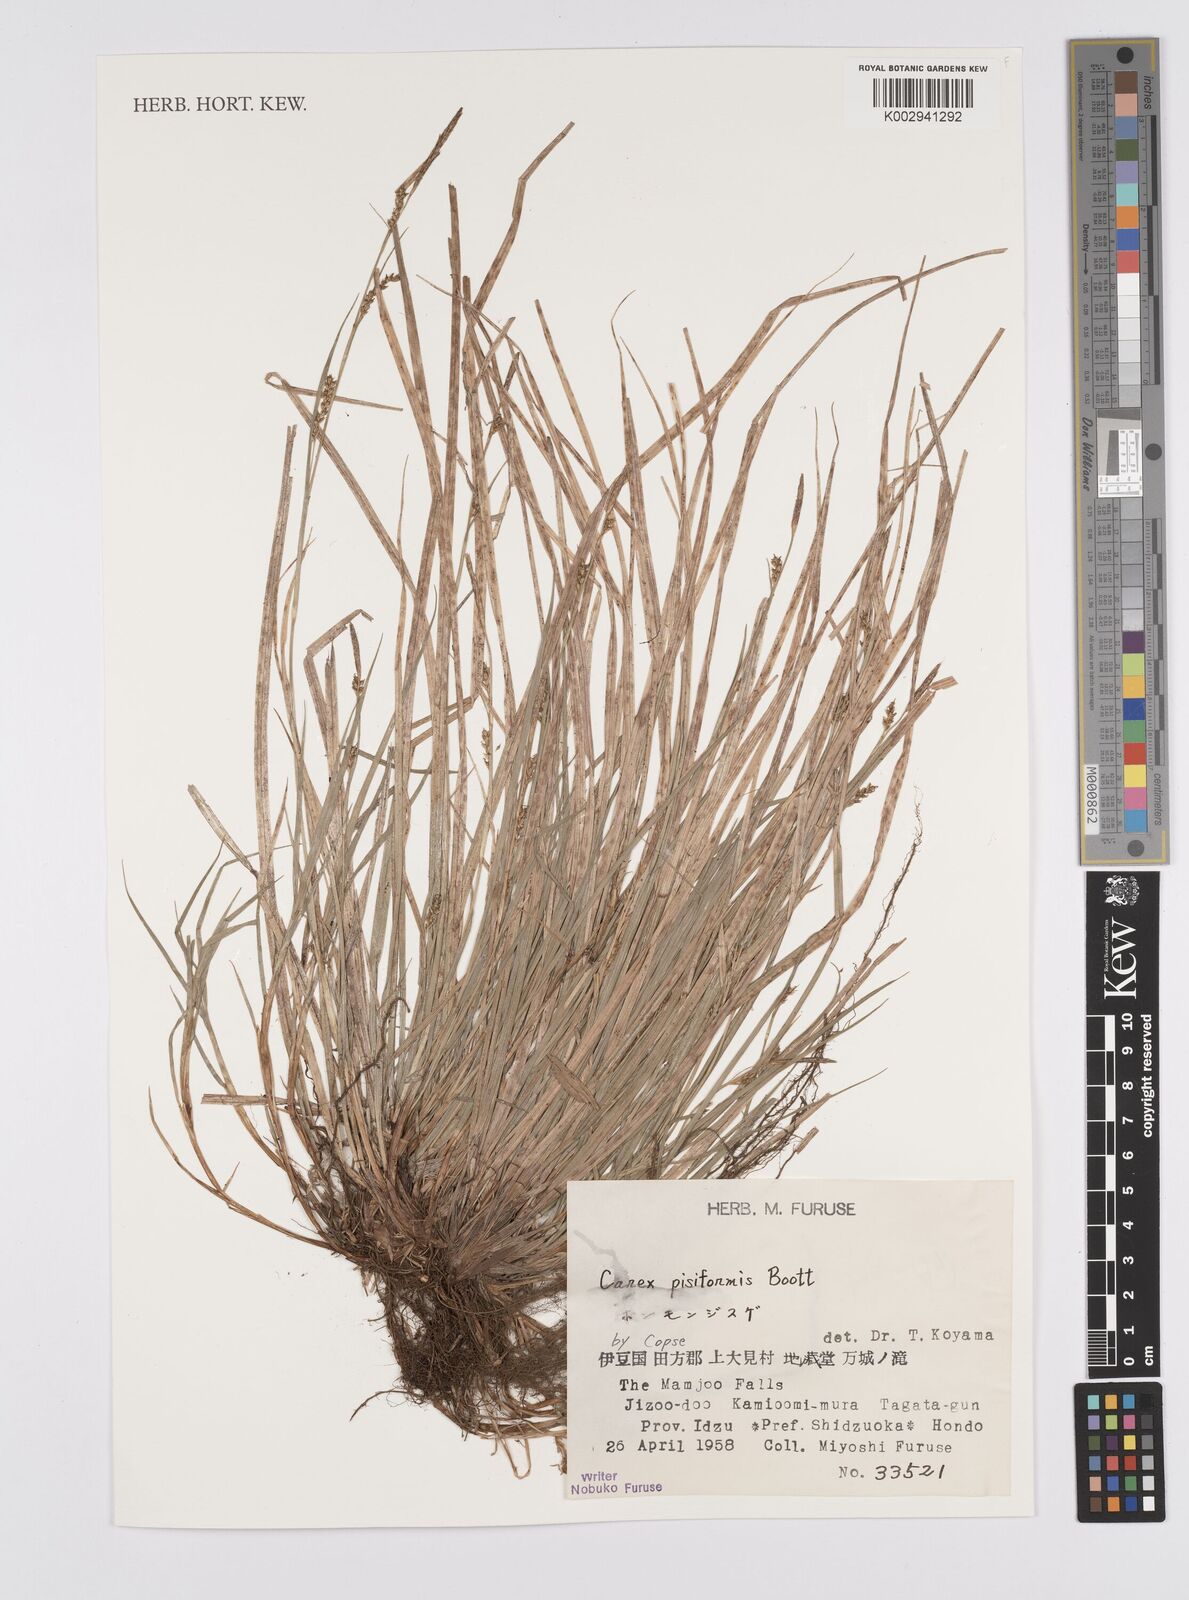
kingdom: Plantae
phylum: Tracheophyta
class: Liliopsida
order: Poales
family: Cyperaceae
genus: Carex
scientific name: Carex pisiformis
